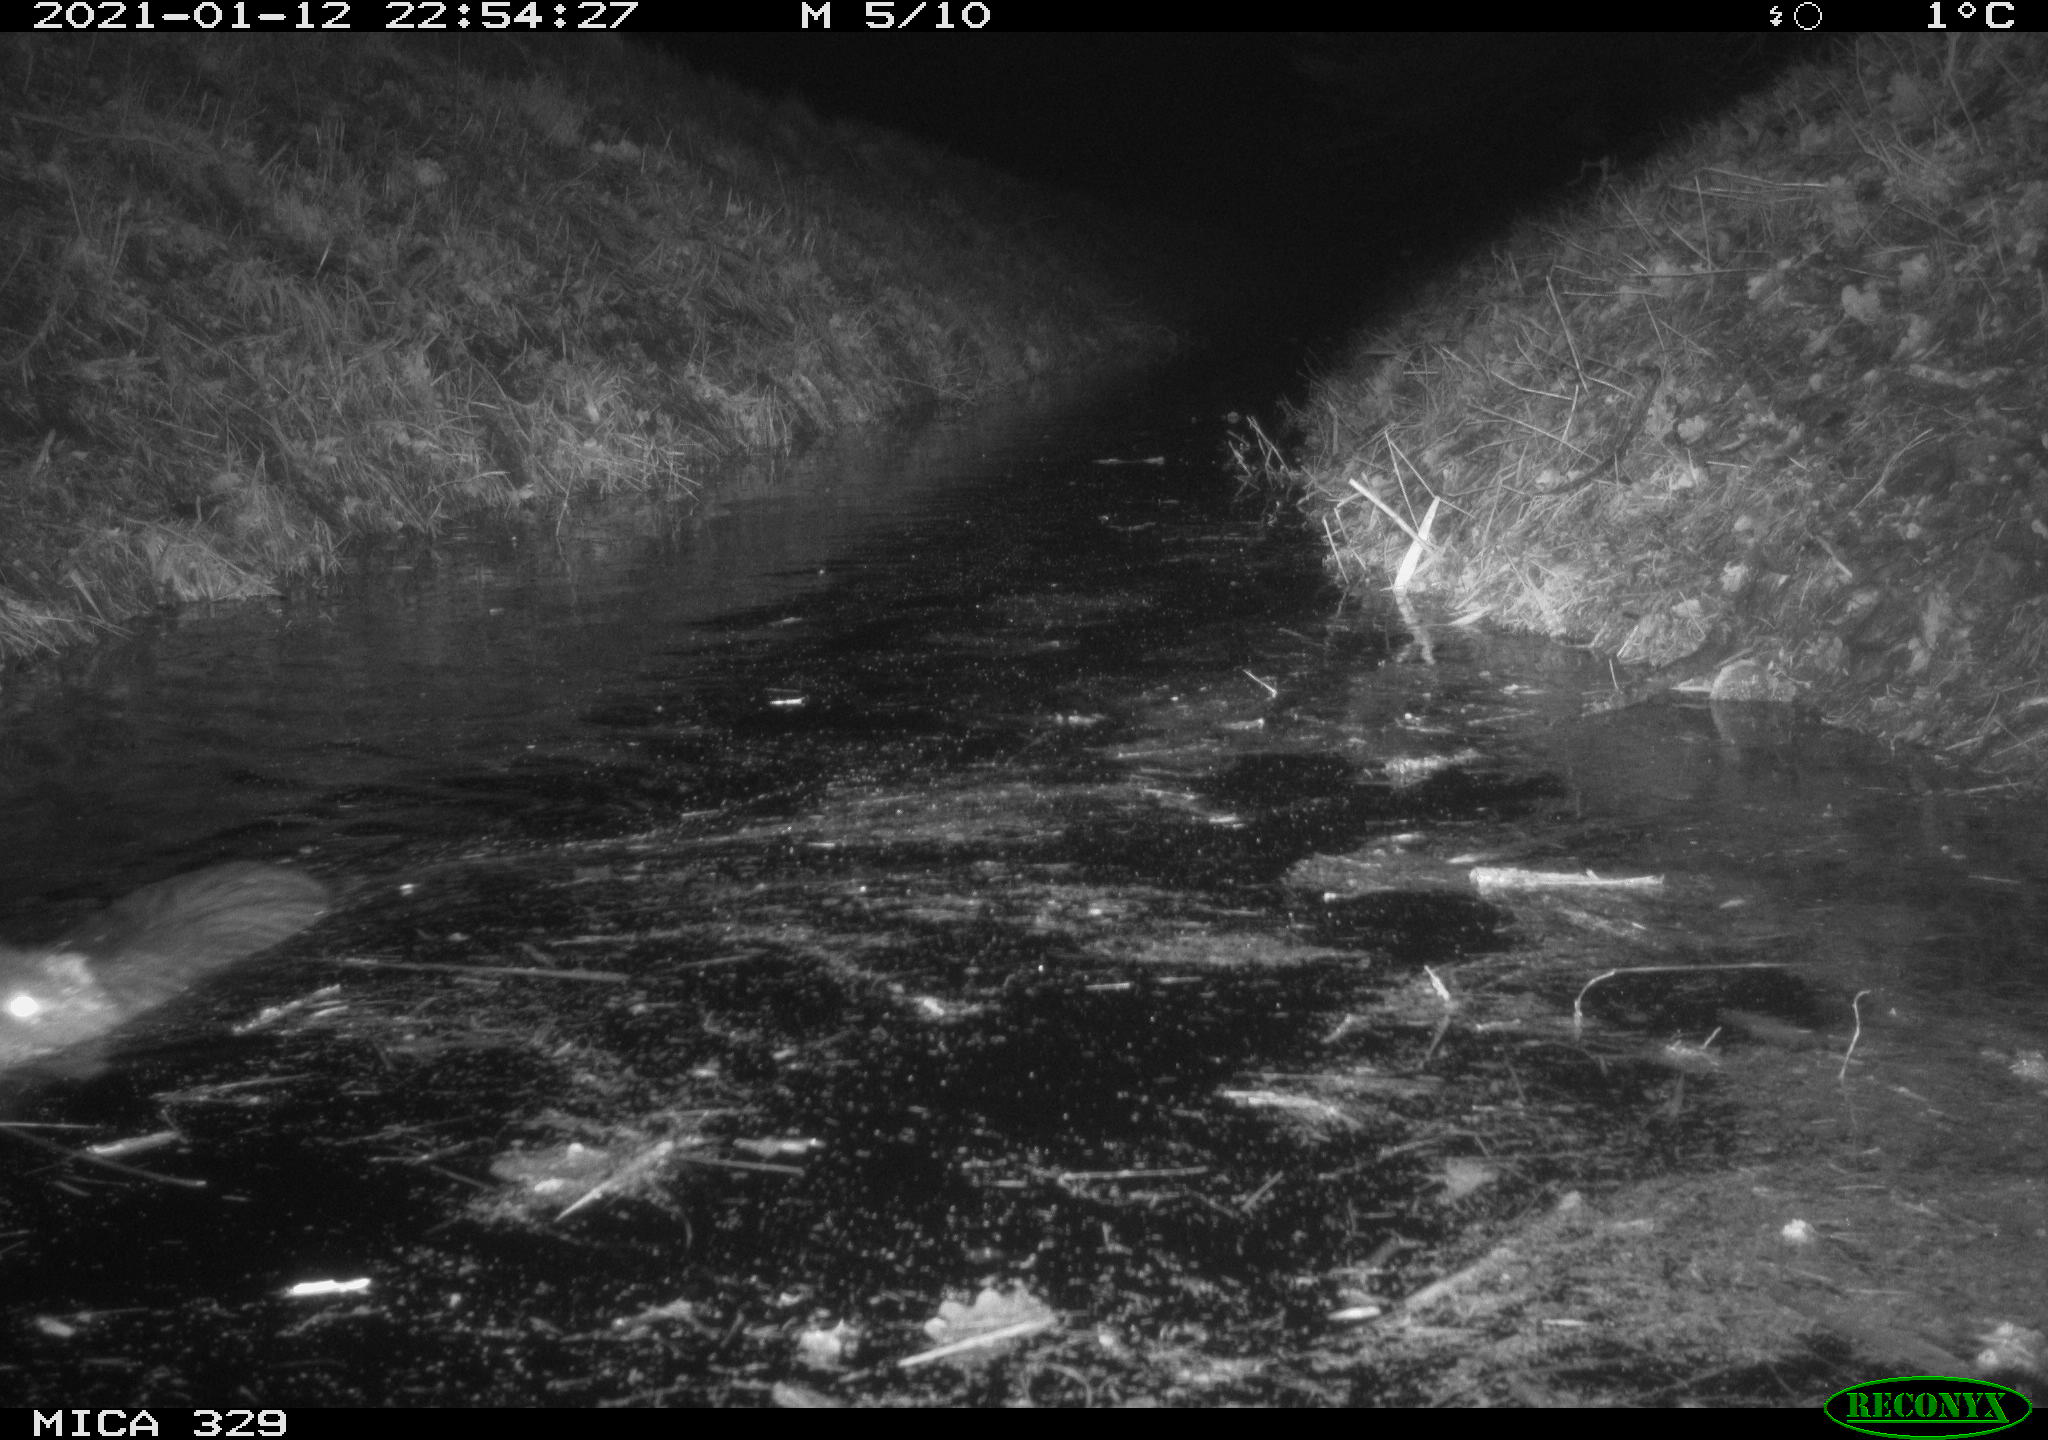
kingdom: Animalia
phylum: Chordata
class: Mammalia
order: Rodentia
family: Myocastoridae
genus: Myocastor
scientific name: Myocastor coypus
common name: Coypu
